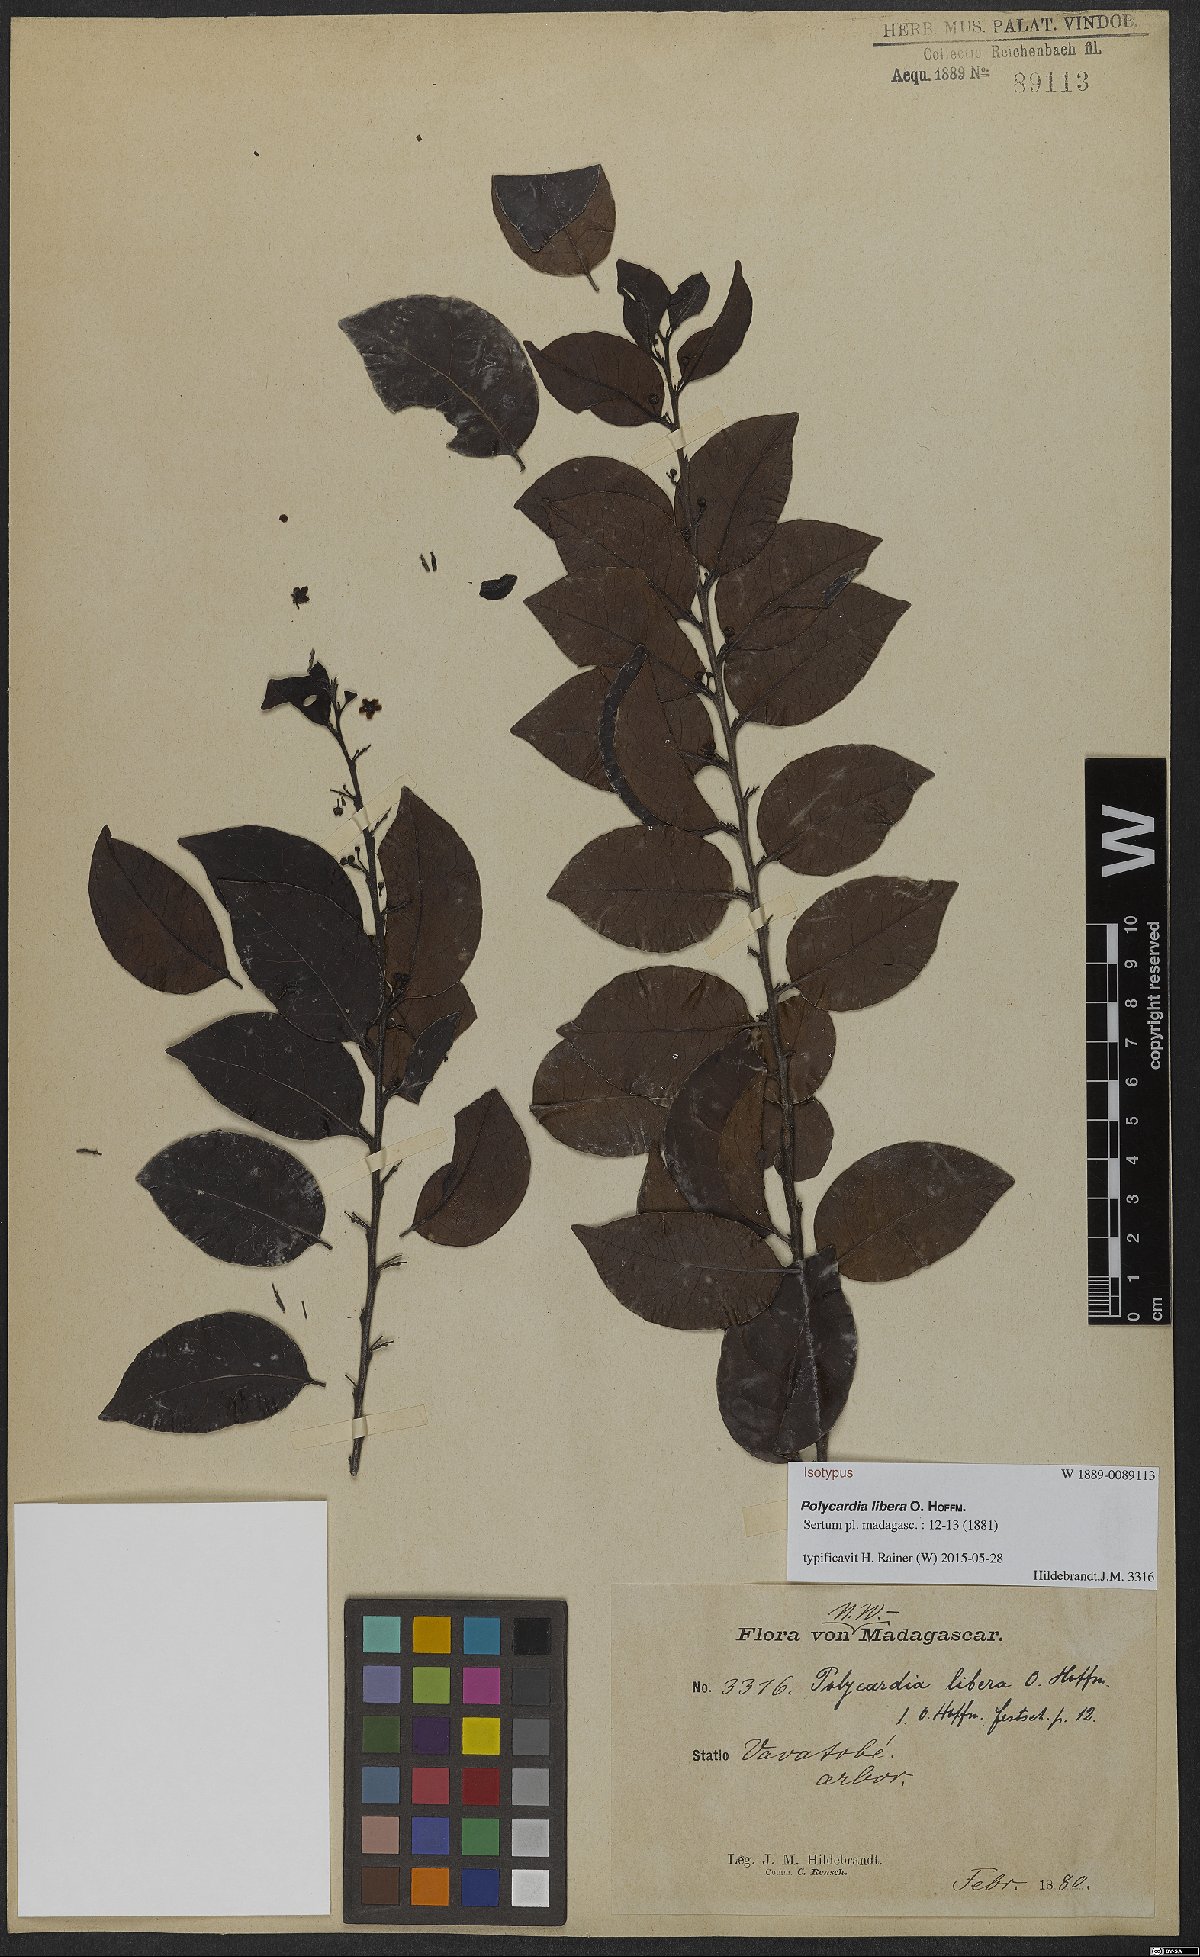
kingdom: Plantae
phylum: Tracheophyta
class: Magnoliopsida
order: Celastrales
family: Celastraceae
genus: Polycardia
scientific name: Polycardia libera
